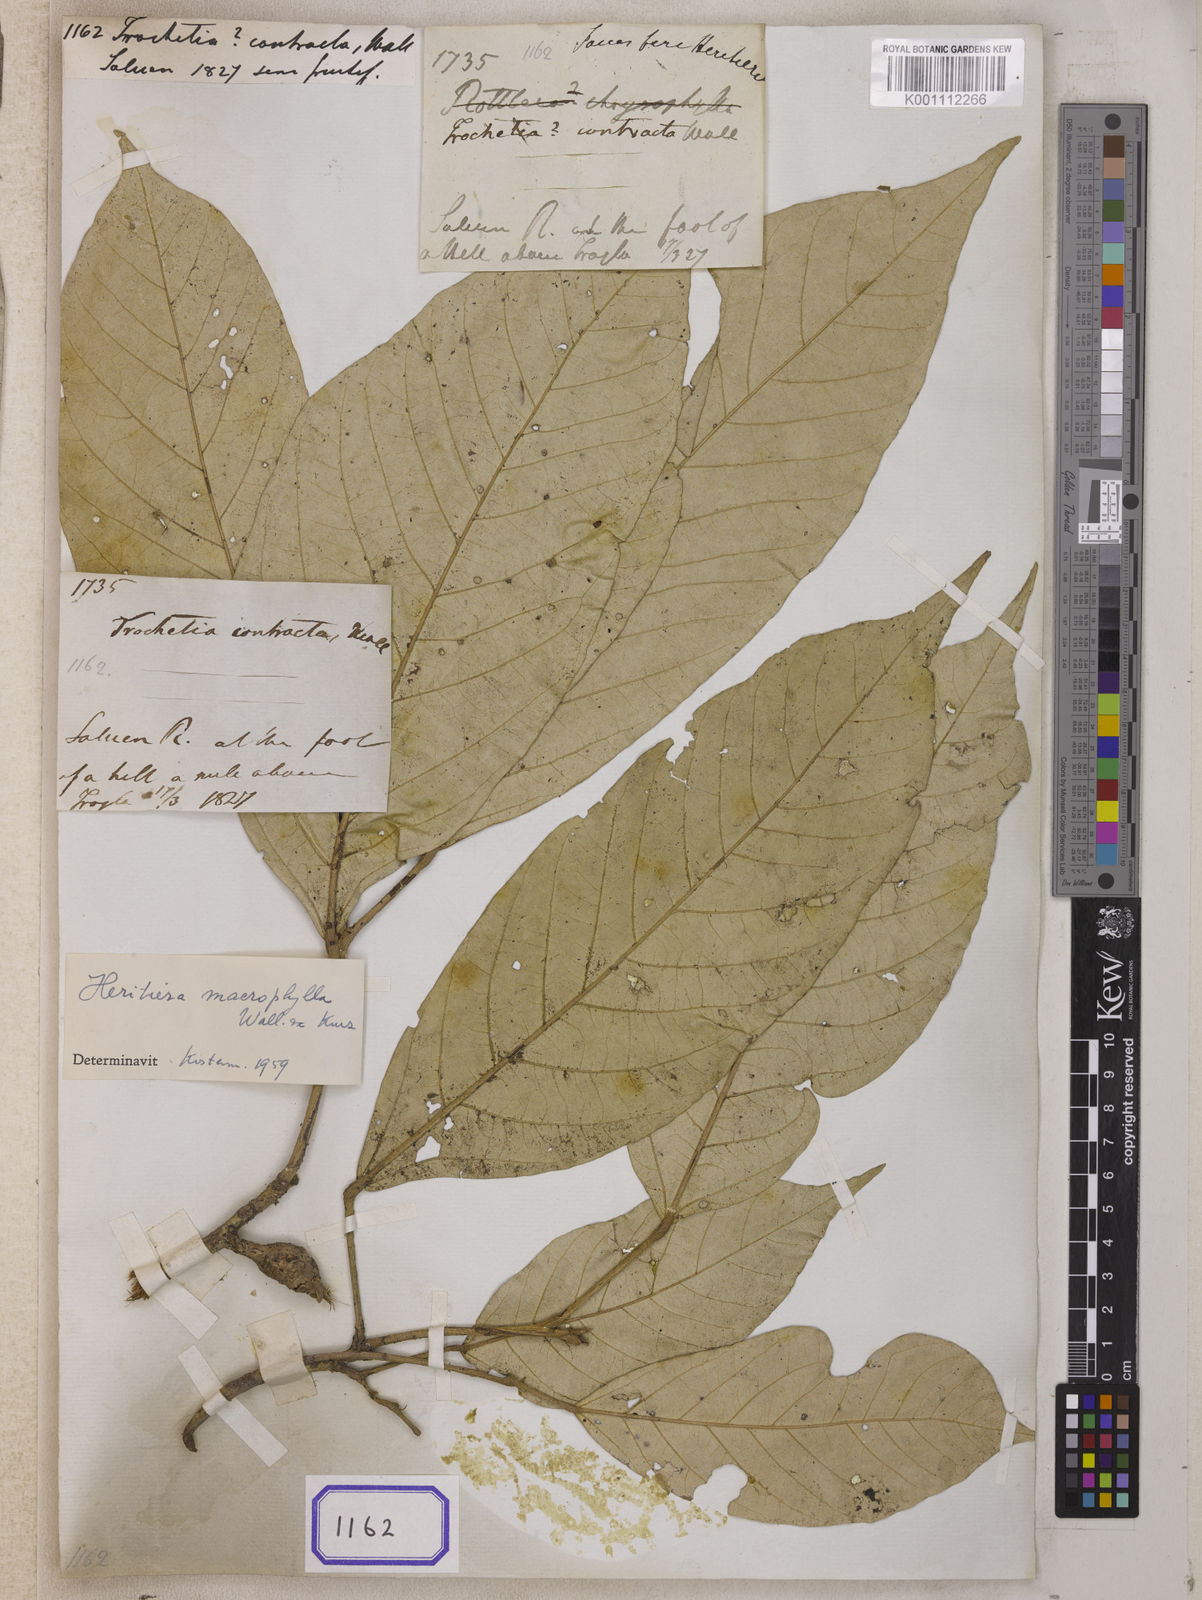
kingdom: Plantae
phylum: Tracheophyta
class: Magnoliopsida
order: Malvales
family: Malvaceae
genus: Heritiera
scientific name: Heritiera macrophylla
